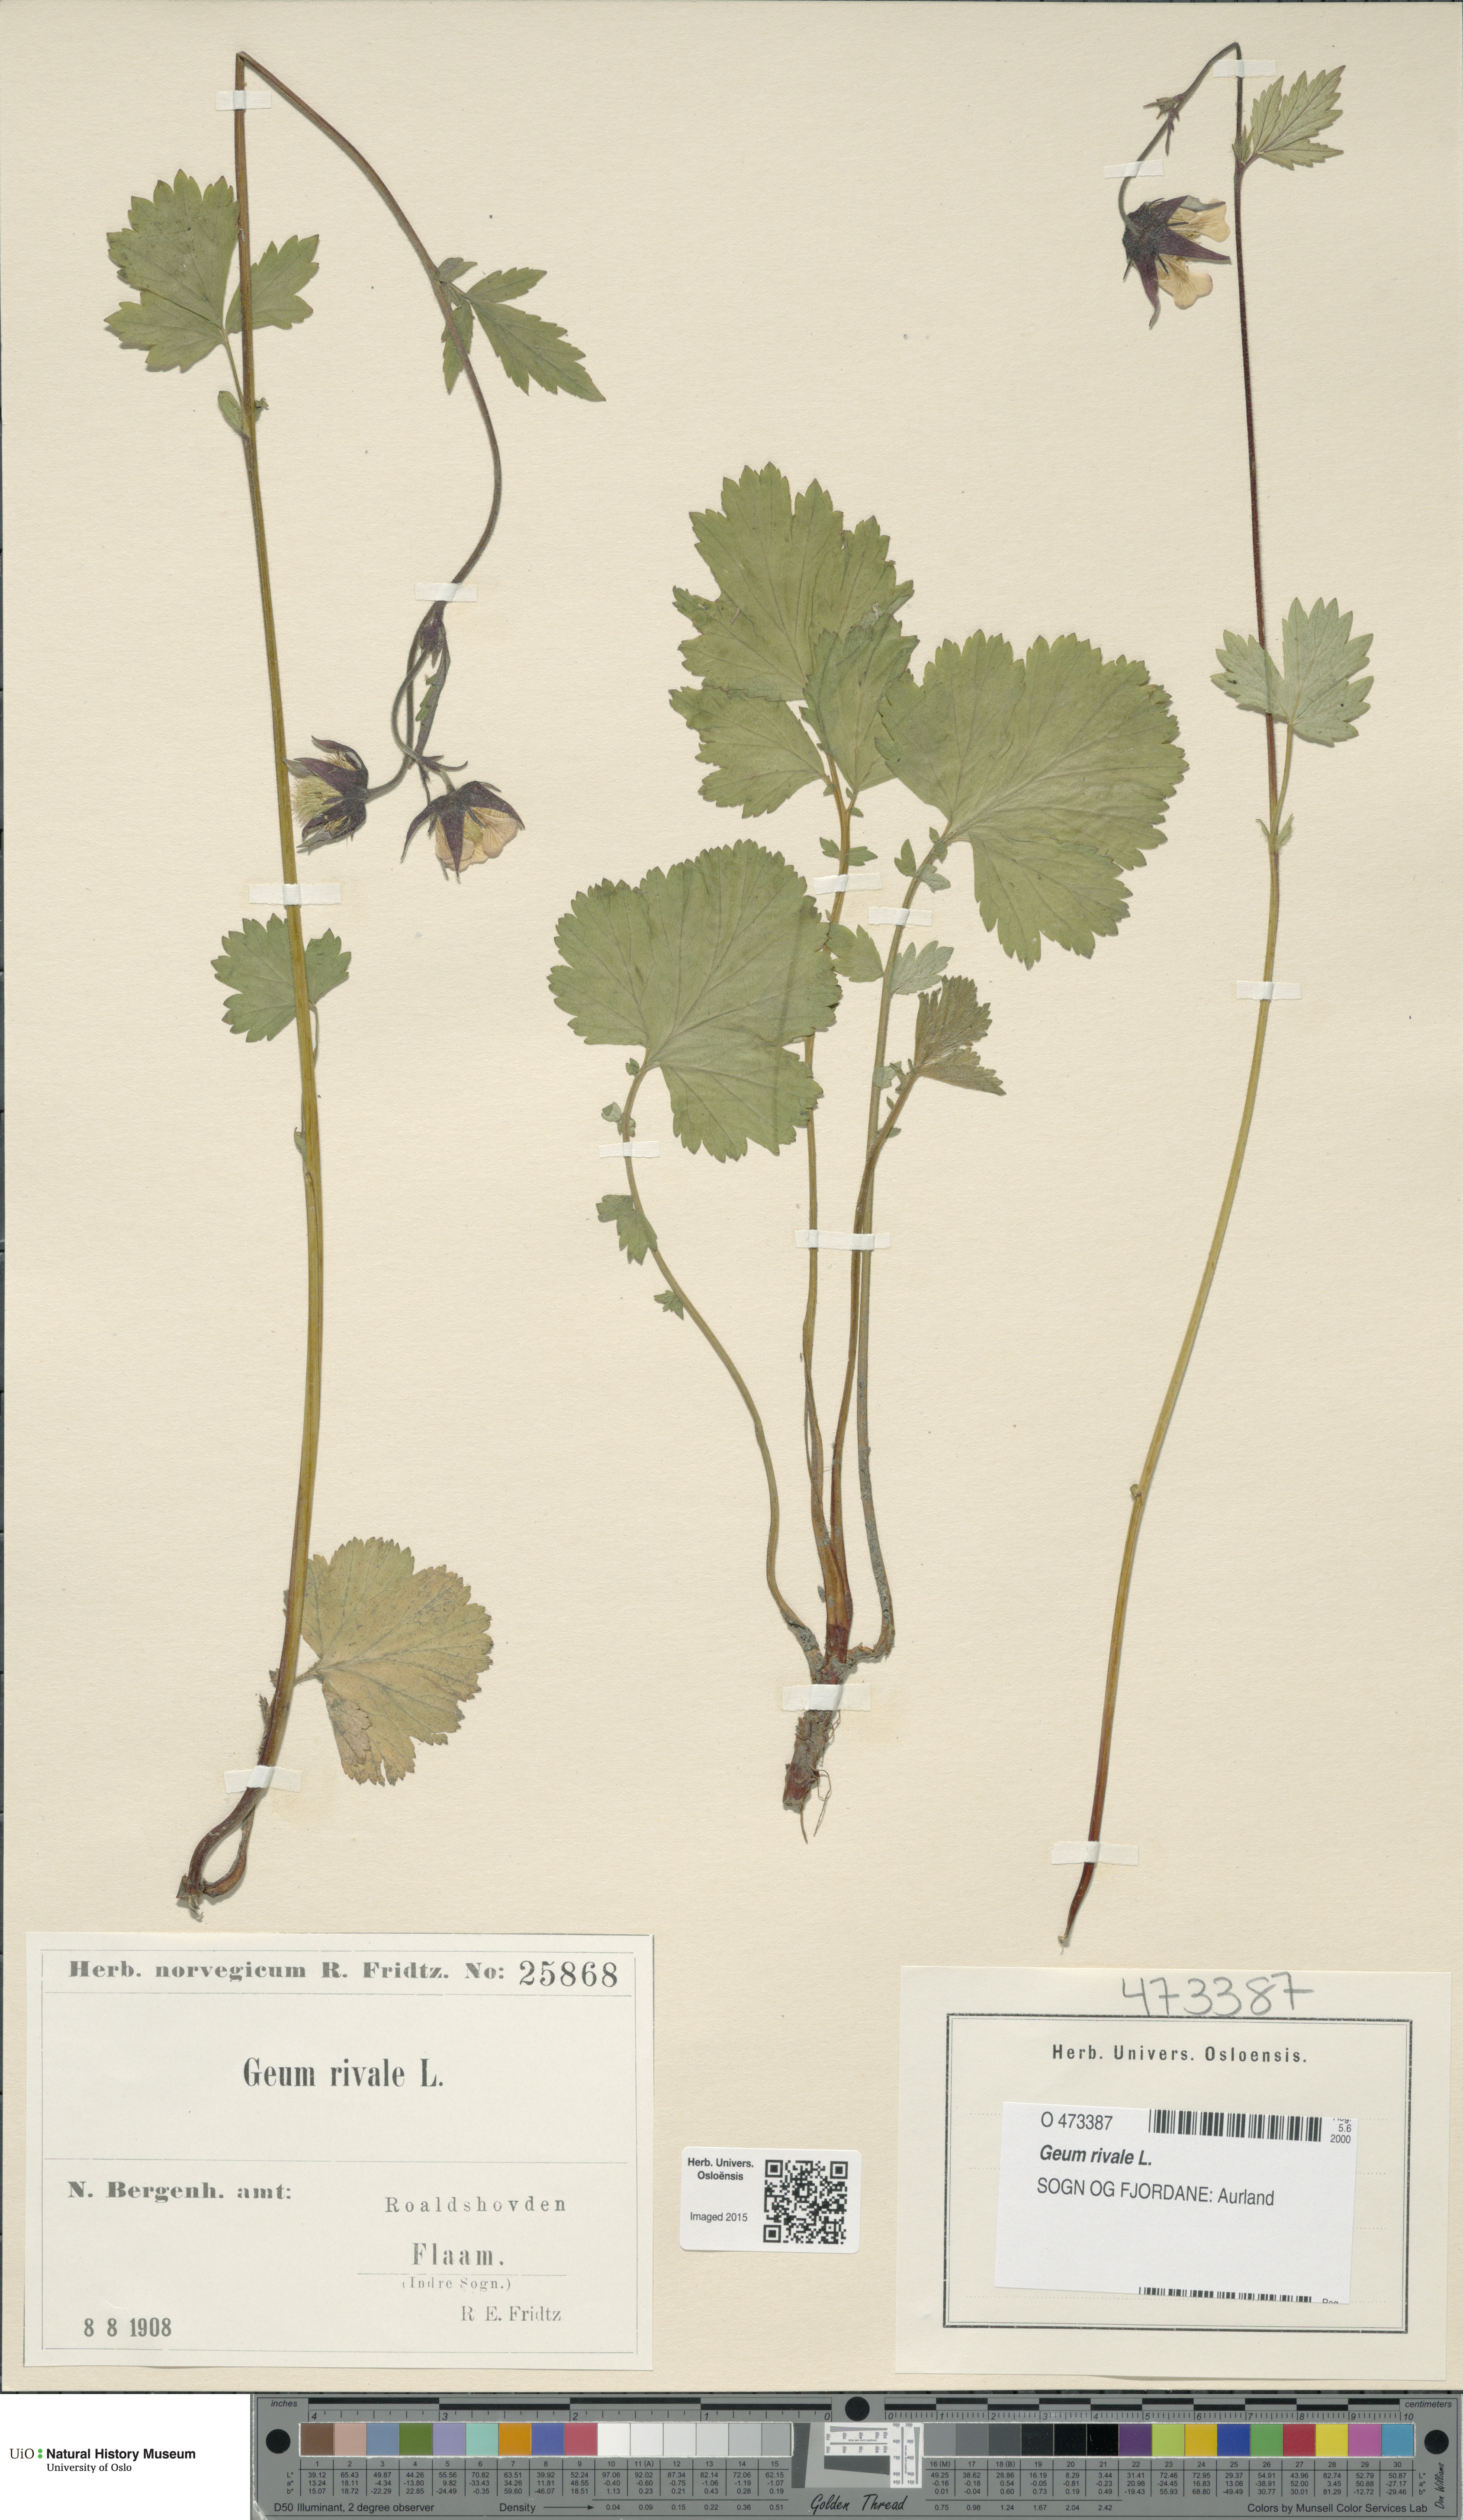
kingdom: Plantae
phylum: Tracheophyta
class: Magnoliopsida
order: Rosales
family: Rosaceae
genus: Geum
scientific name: Geum rivale
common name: Water avens
